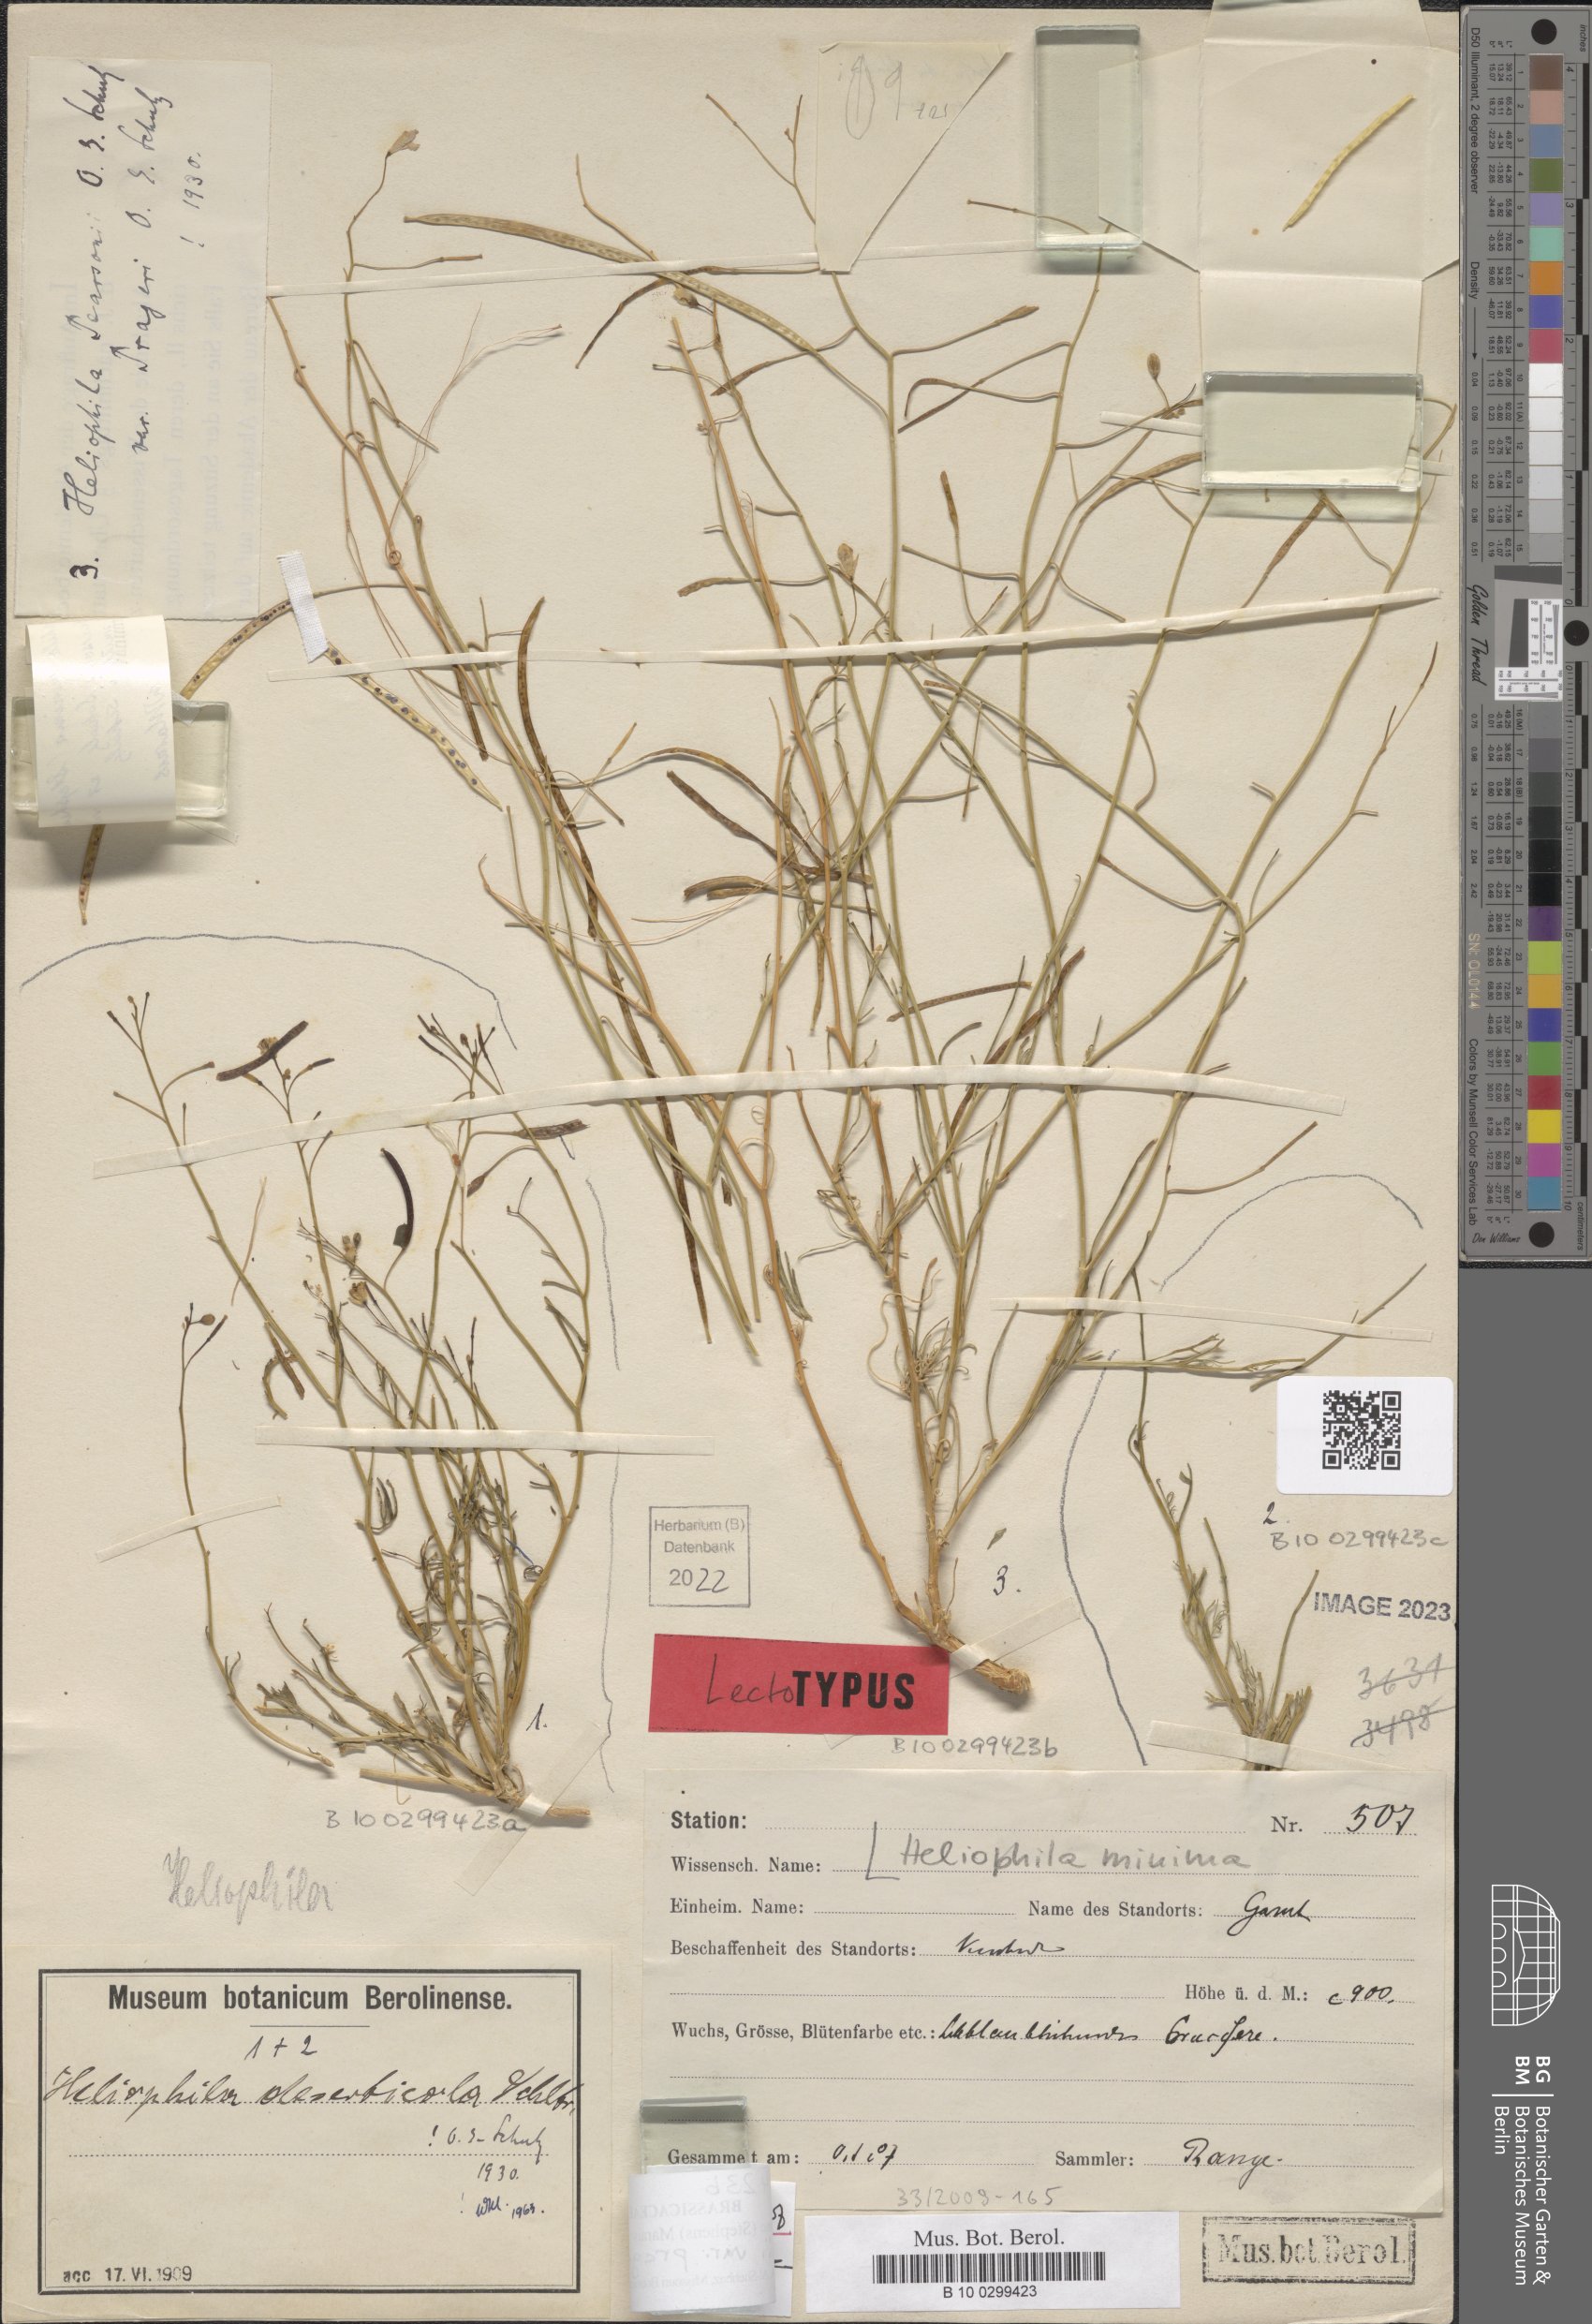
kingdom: Plantae
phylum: Tracheophyta
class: Magnoliopsida
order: Brassicales
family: Brassicaceae
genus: Heliophila
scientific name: Heliophila minima
